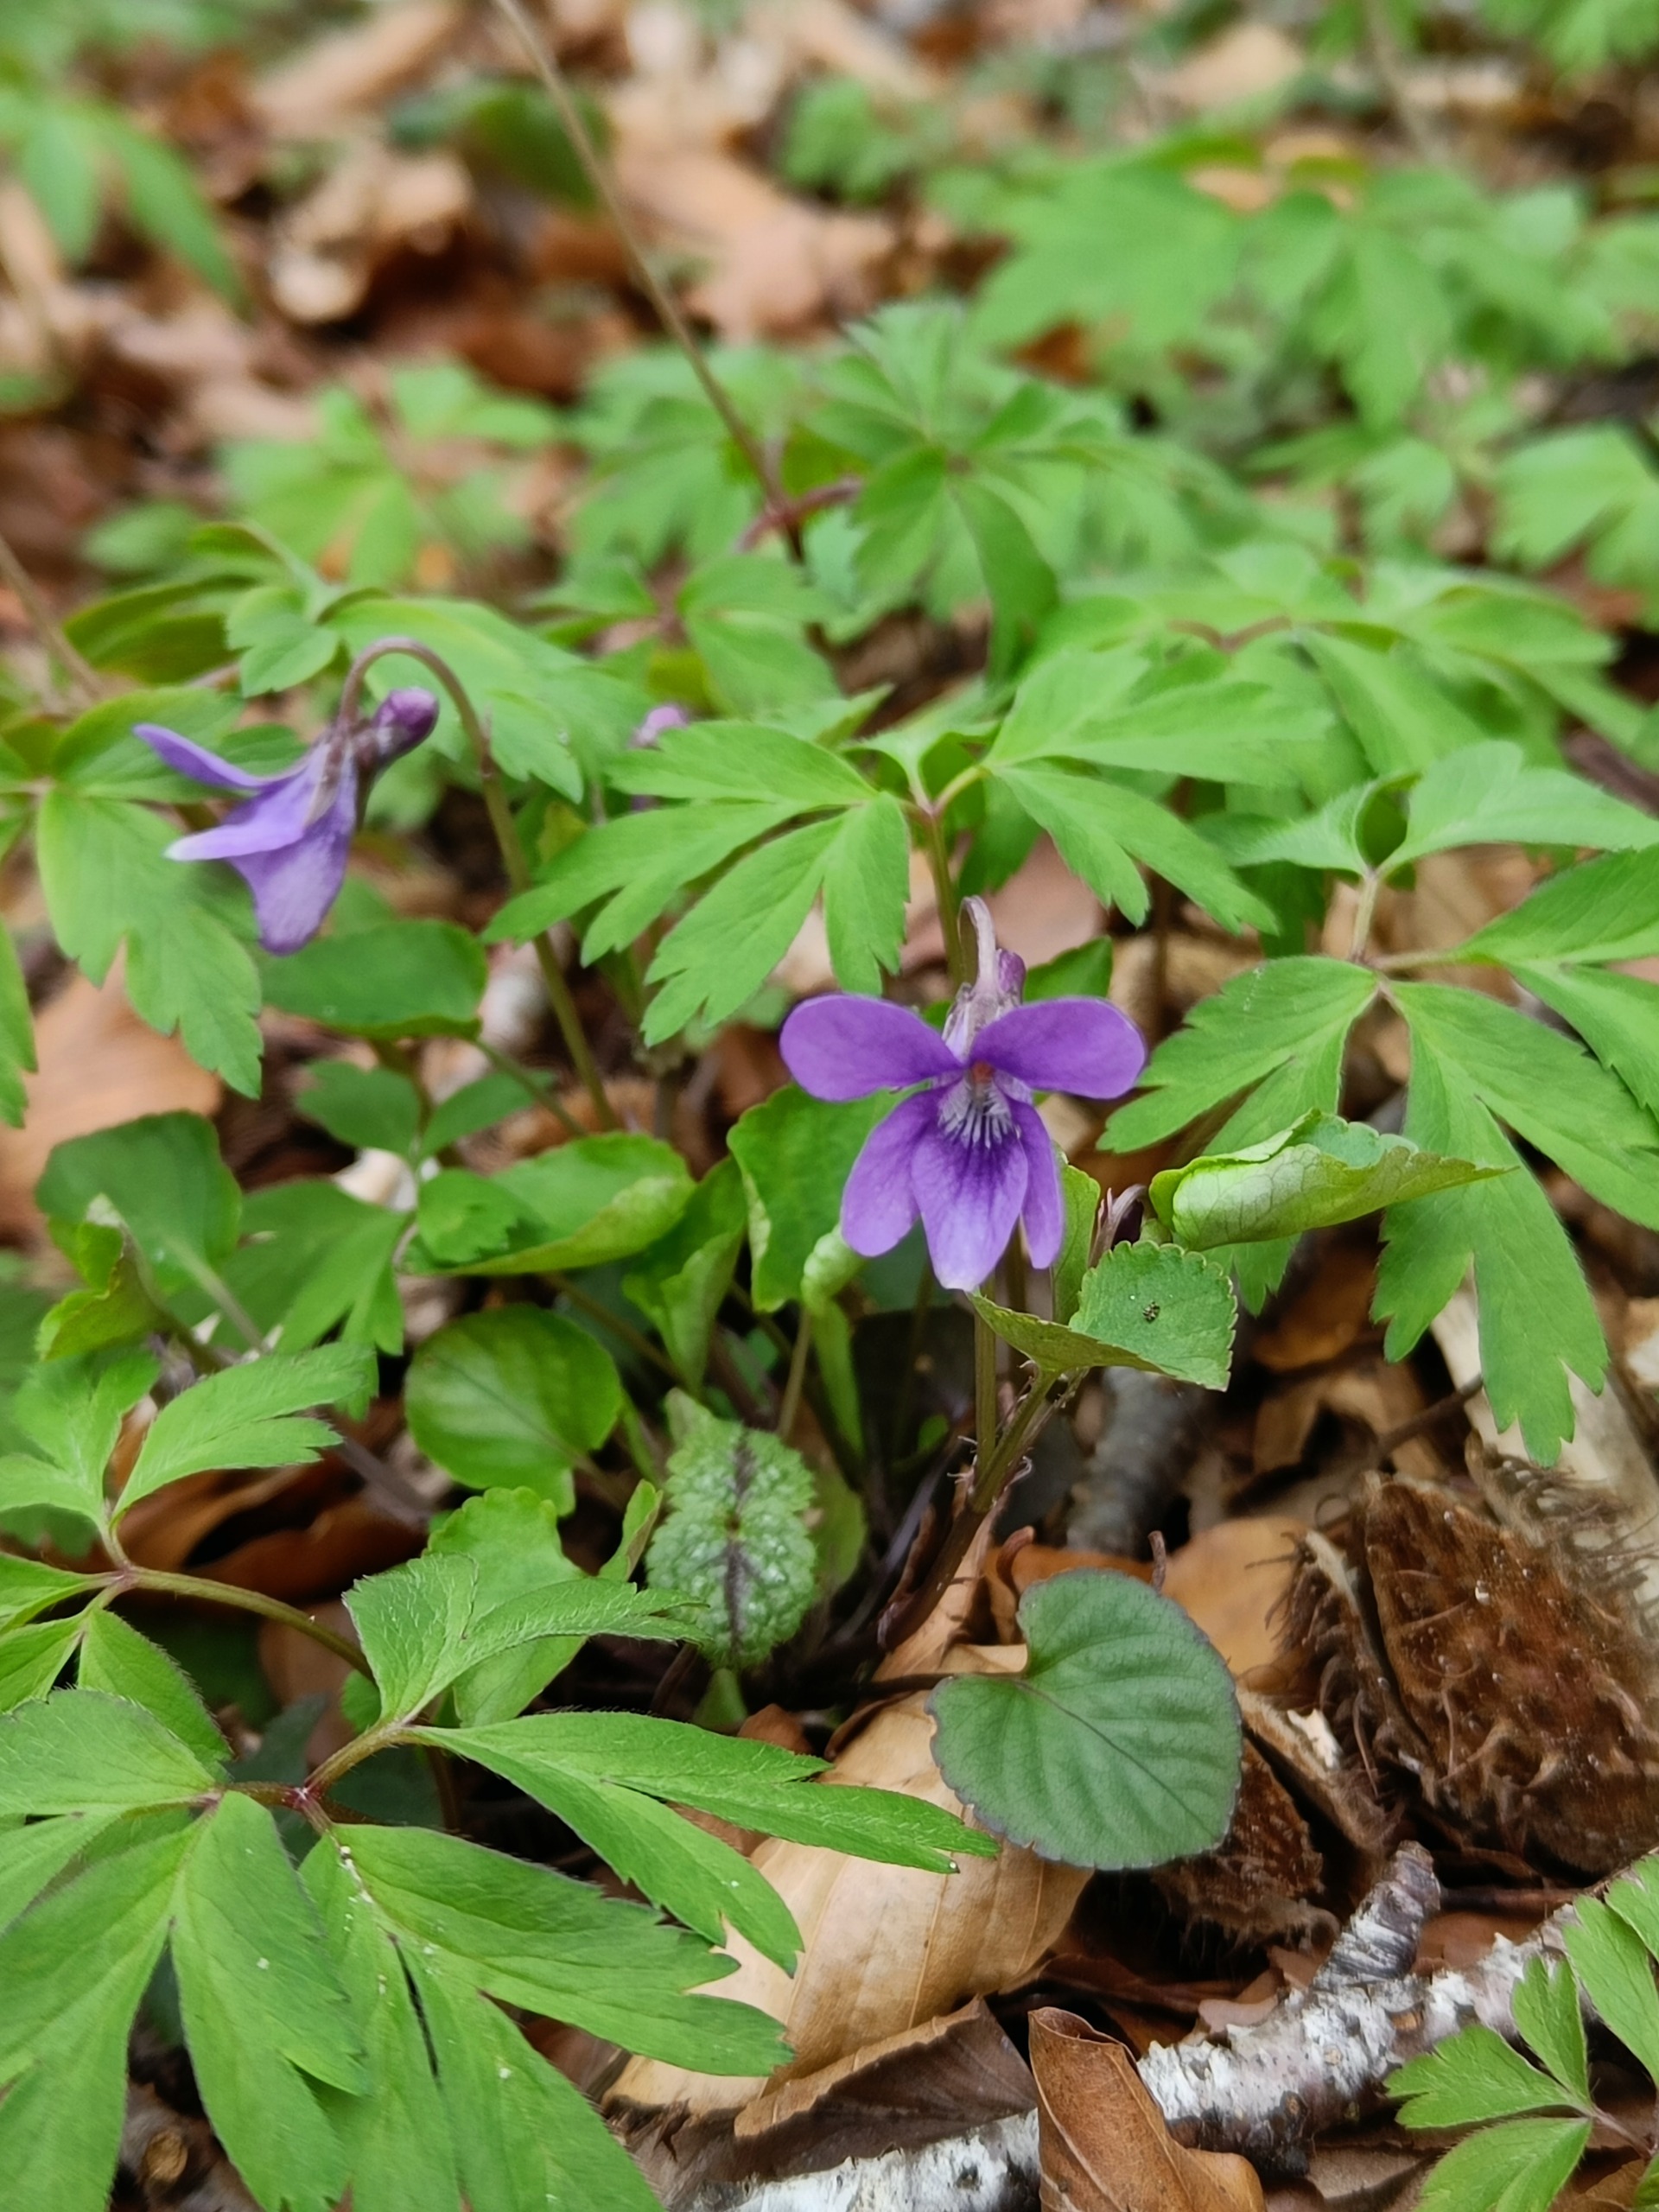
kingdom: Plantae
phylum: Tracheophyta
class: Magnoliopsida
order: Malpighiales
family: Violaceae
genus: Viola
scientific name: Viola reichenbachiana
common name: Skov-viol
